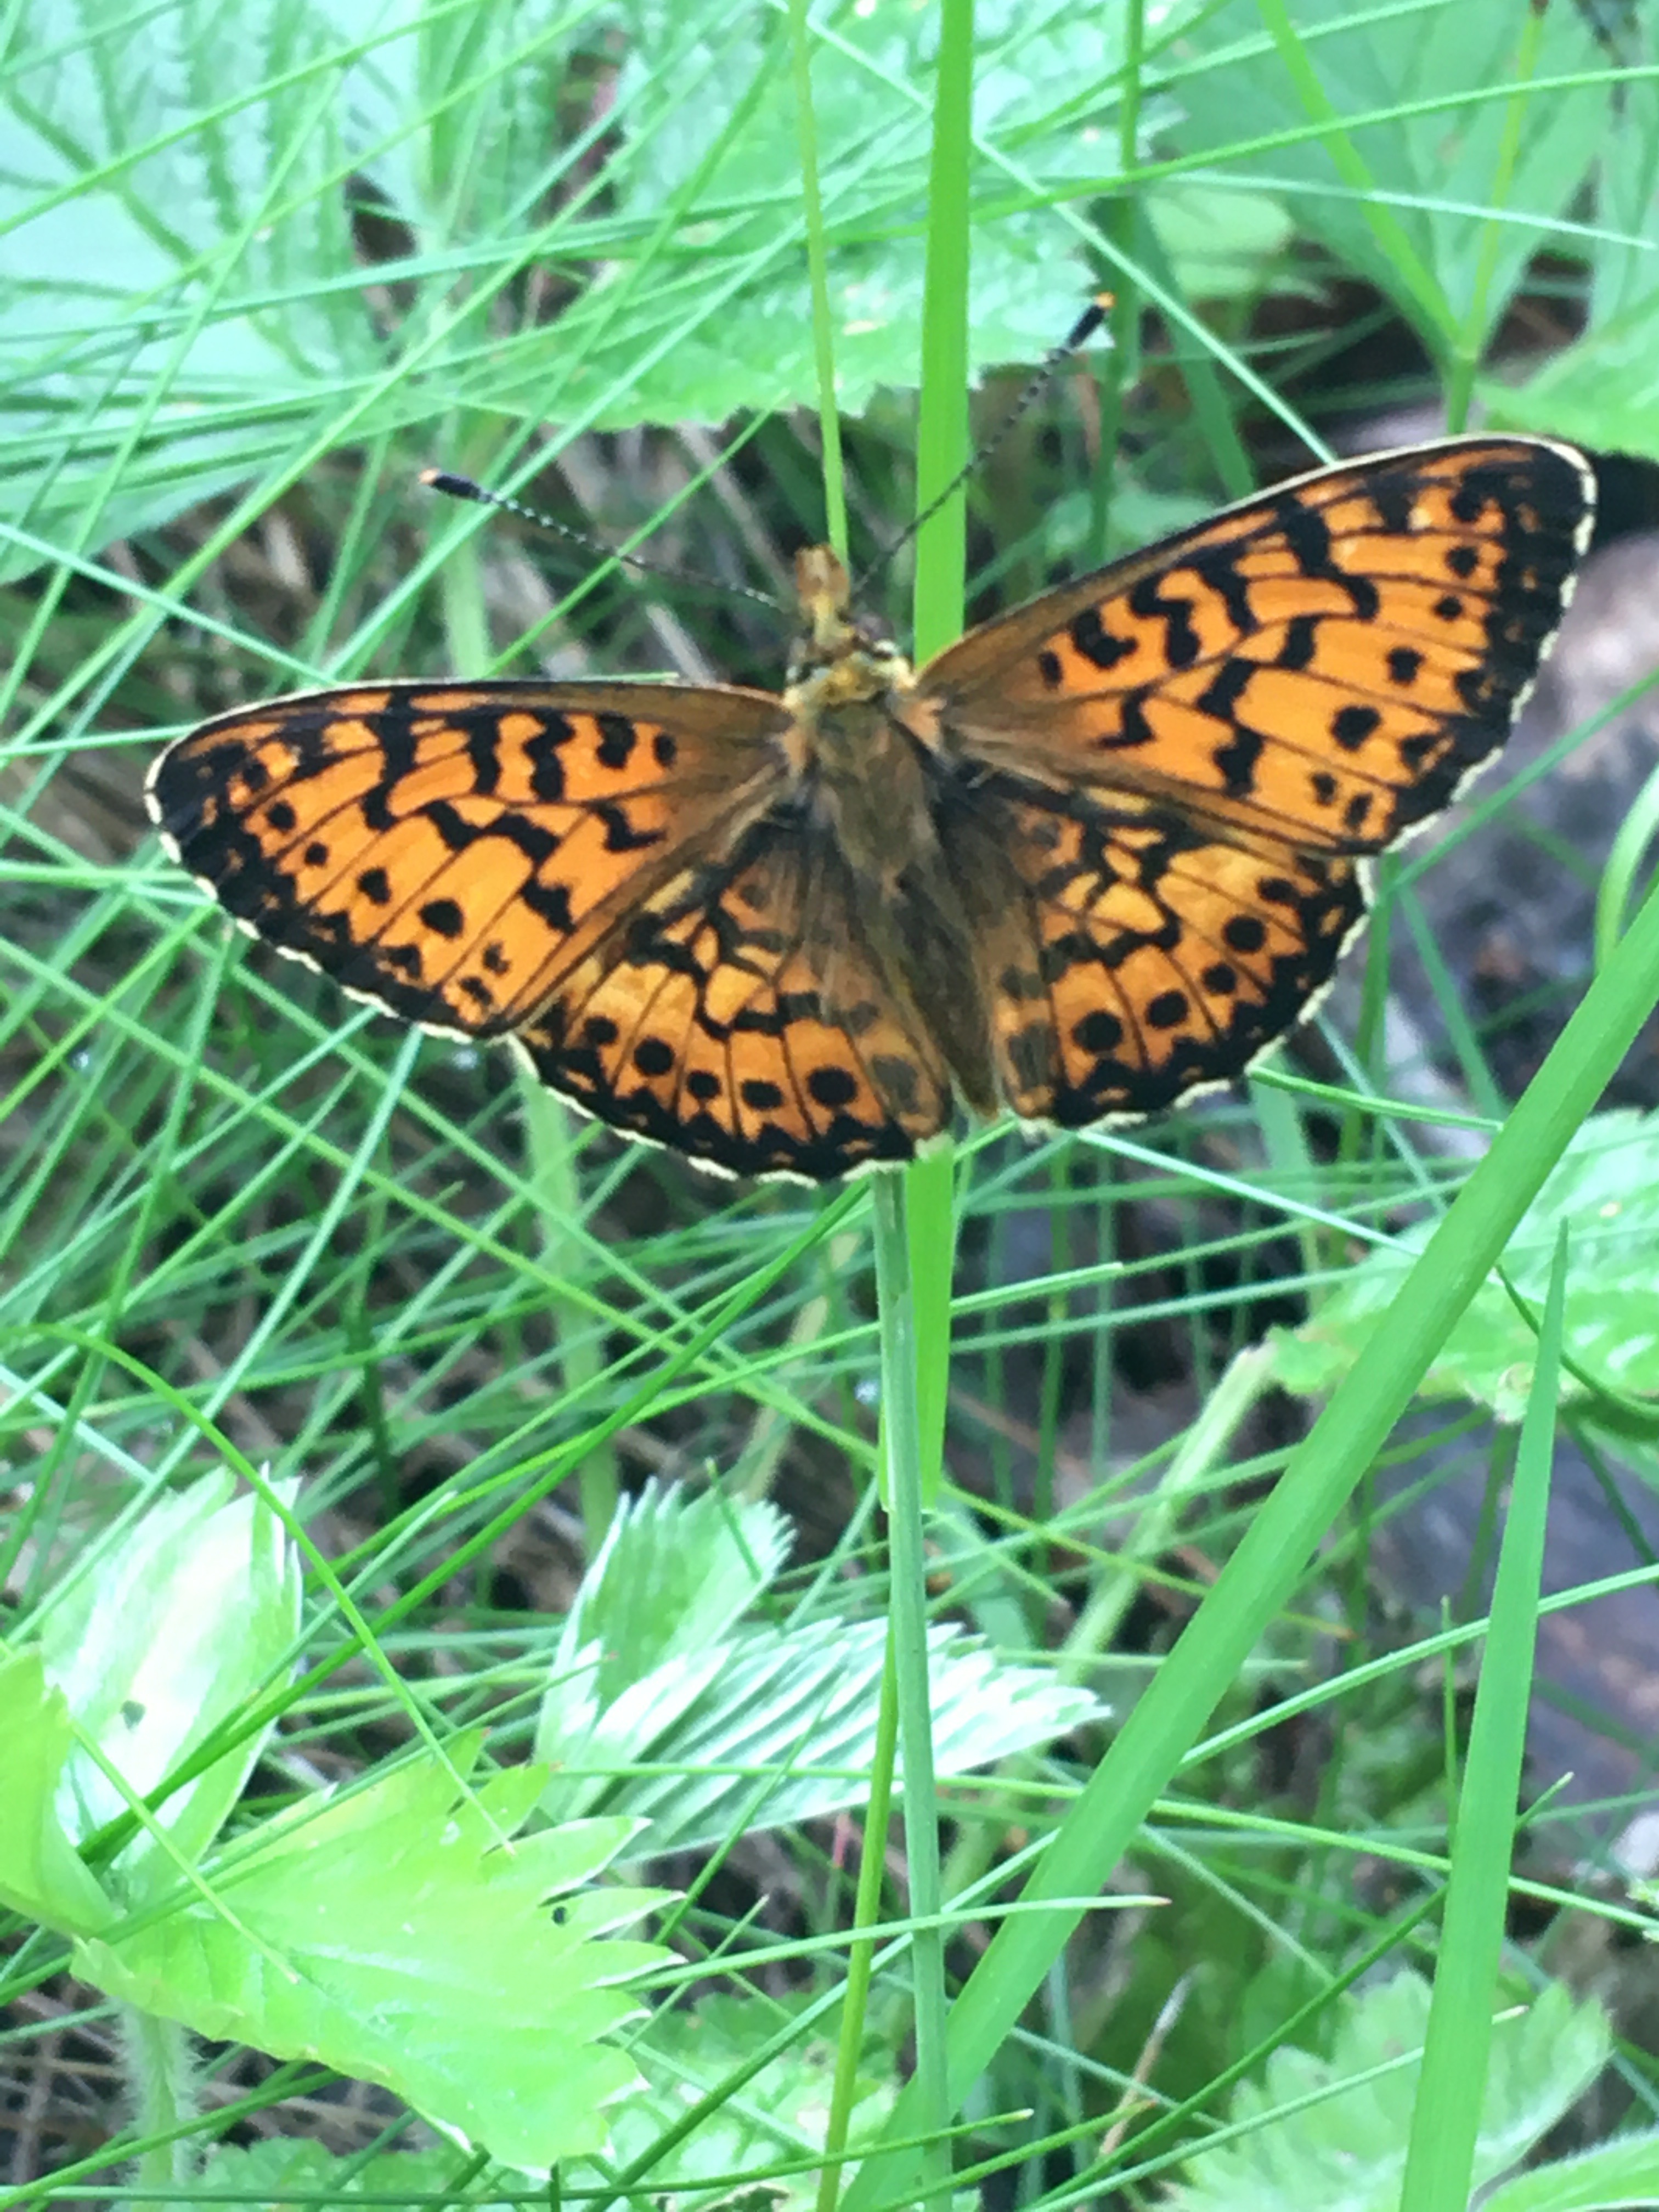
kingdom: Animalia
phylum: Arthropoda
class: Insecta
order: Lepidoptera
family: Nymphalidae
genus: Boloria
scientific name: Boloria titania
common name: Titania's fritillary
